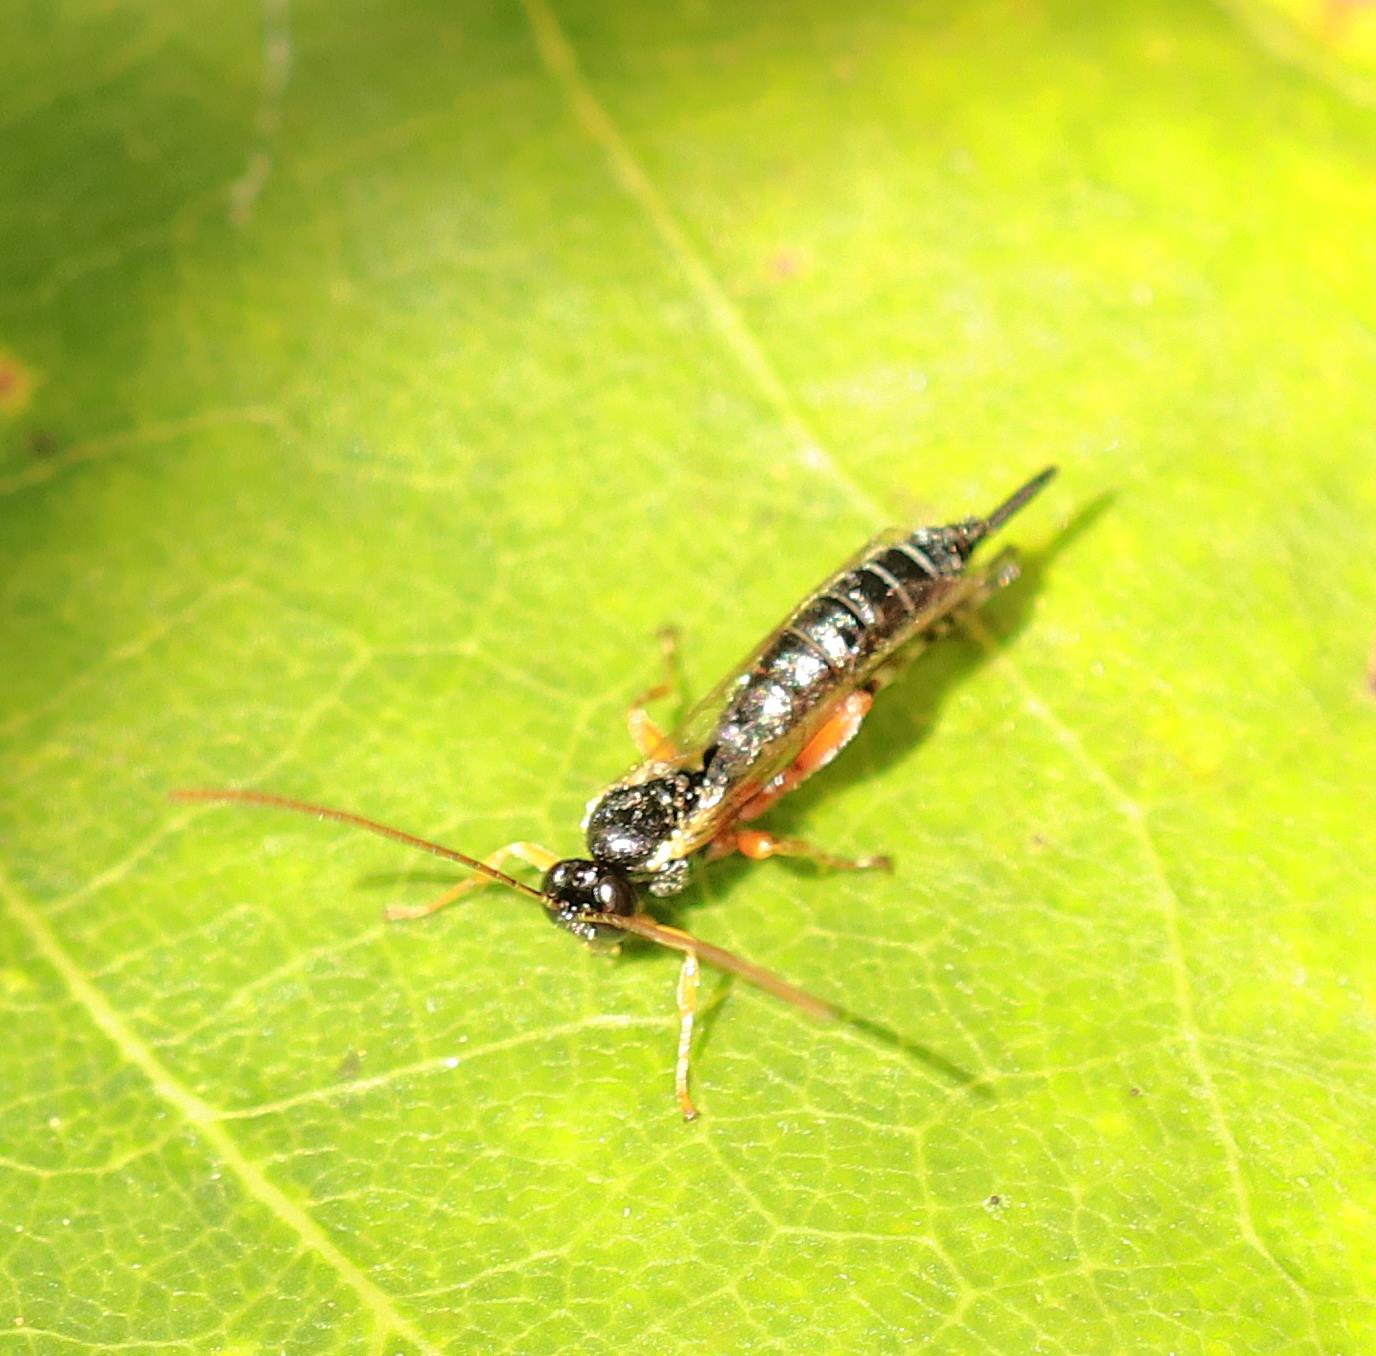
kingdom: Animalia
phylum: Arthropoda
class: Insecta
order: Hymenoptera
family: Ichneumonidae
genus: Itoplectis
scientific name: Itoplectis alternans
